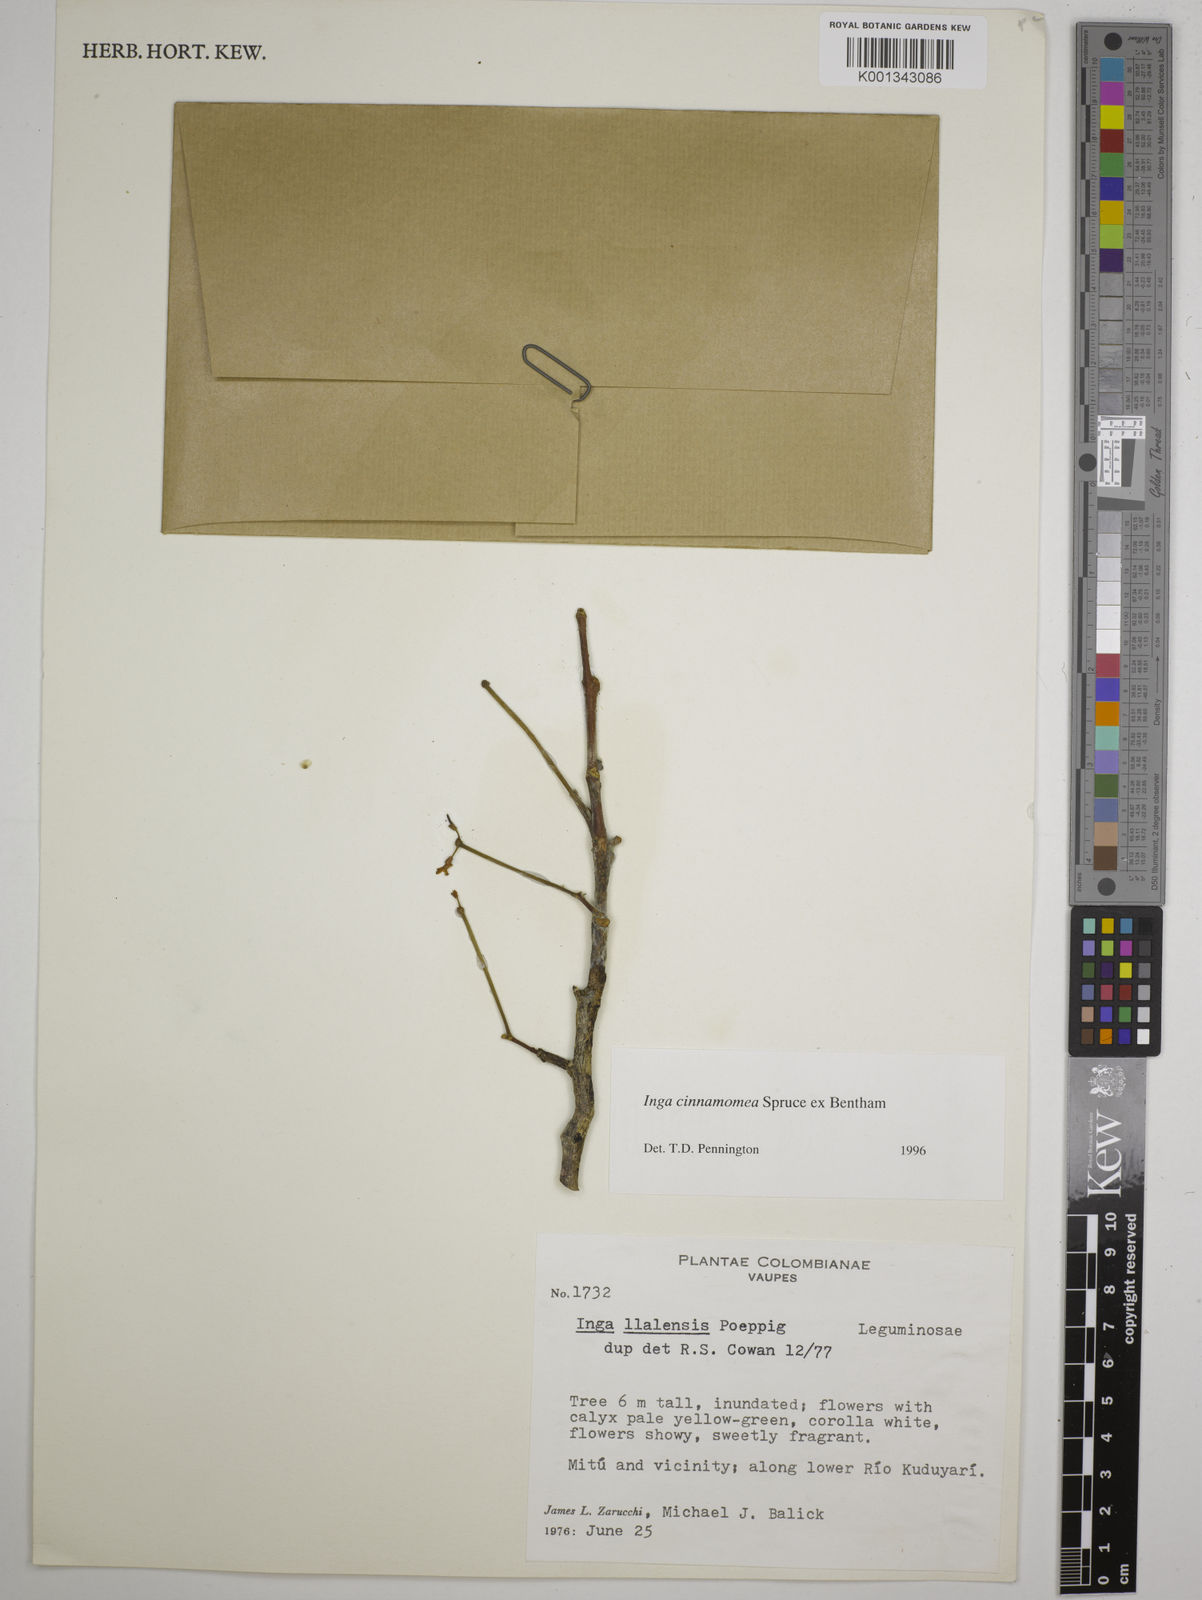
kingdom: Plantae
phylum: Tracheophyta
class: Magnoliopsida
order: Fabales
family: Fabaceae
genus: Inga
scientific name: Inga cinnamomea
